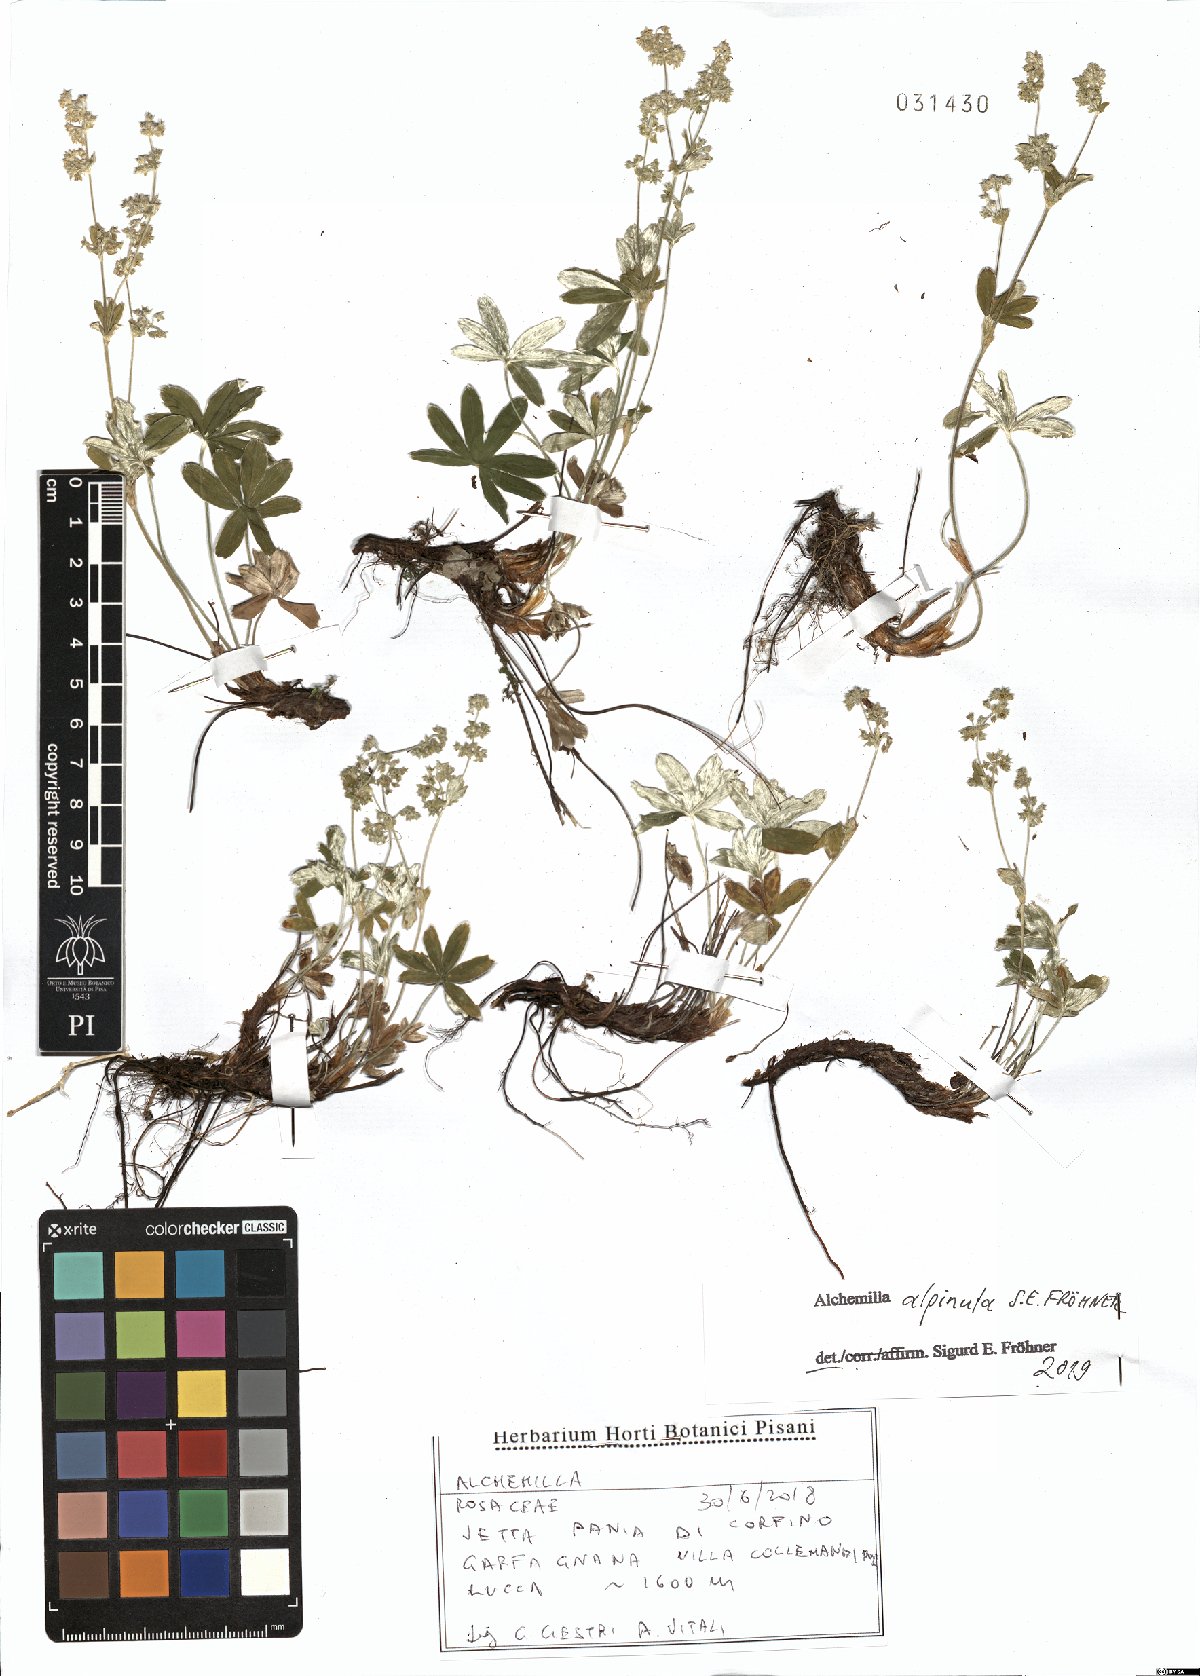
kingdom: Plantae
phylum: Tracheophyta
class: Magnoliopsida
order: Rosales
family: Rosaceae
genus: Alchemilla
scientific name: Alchemilla alpinula
